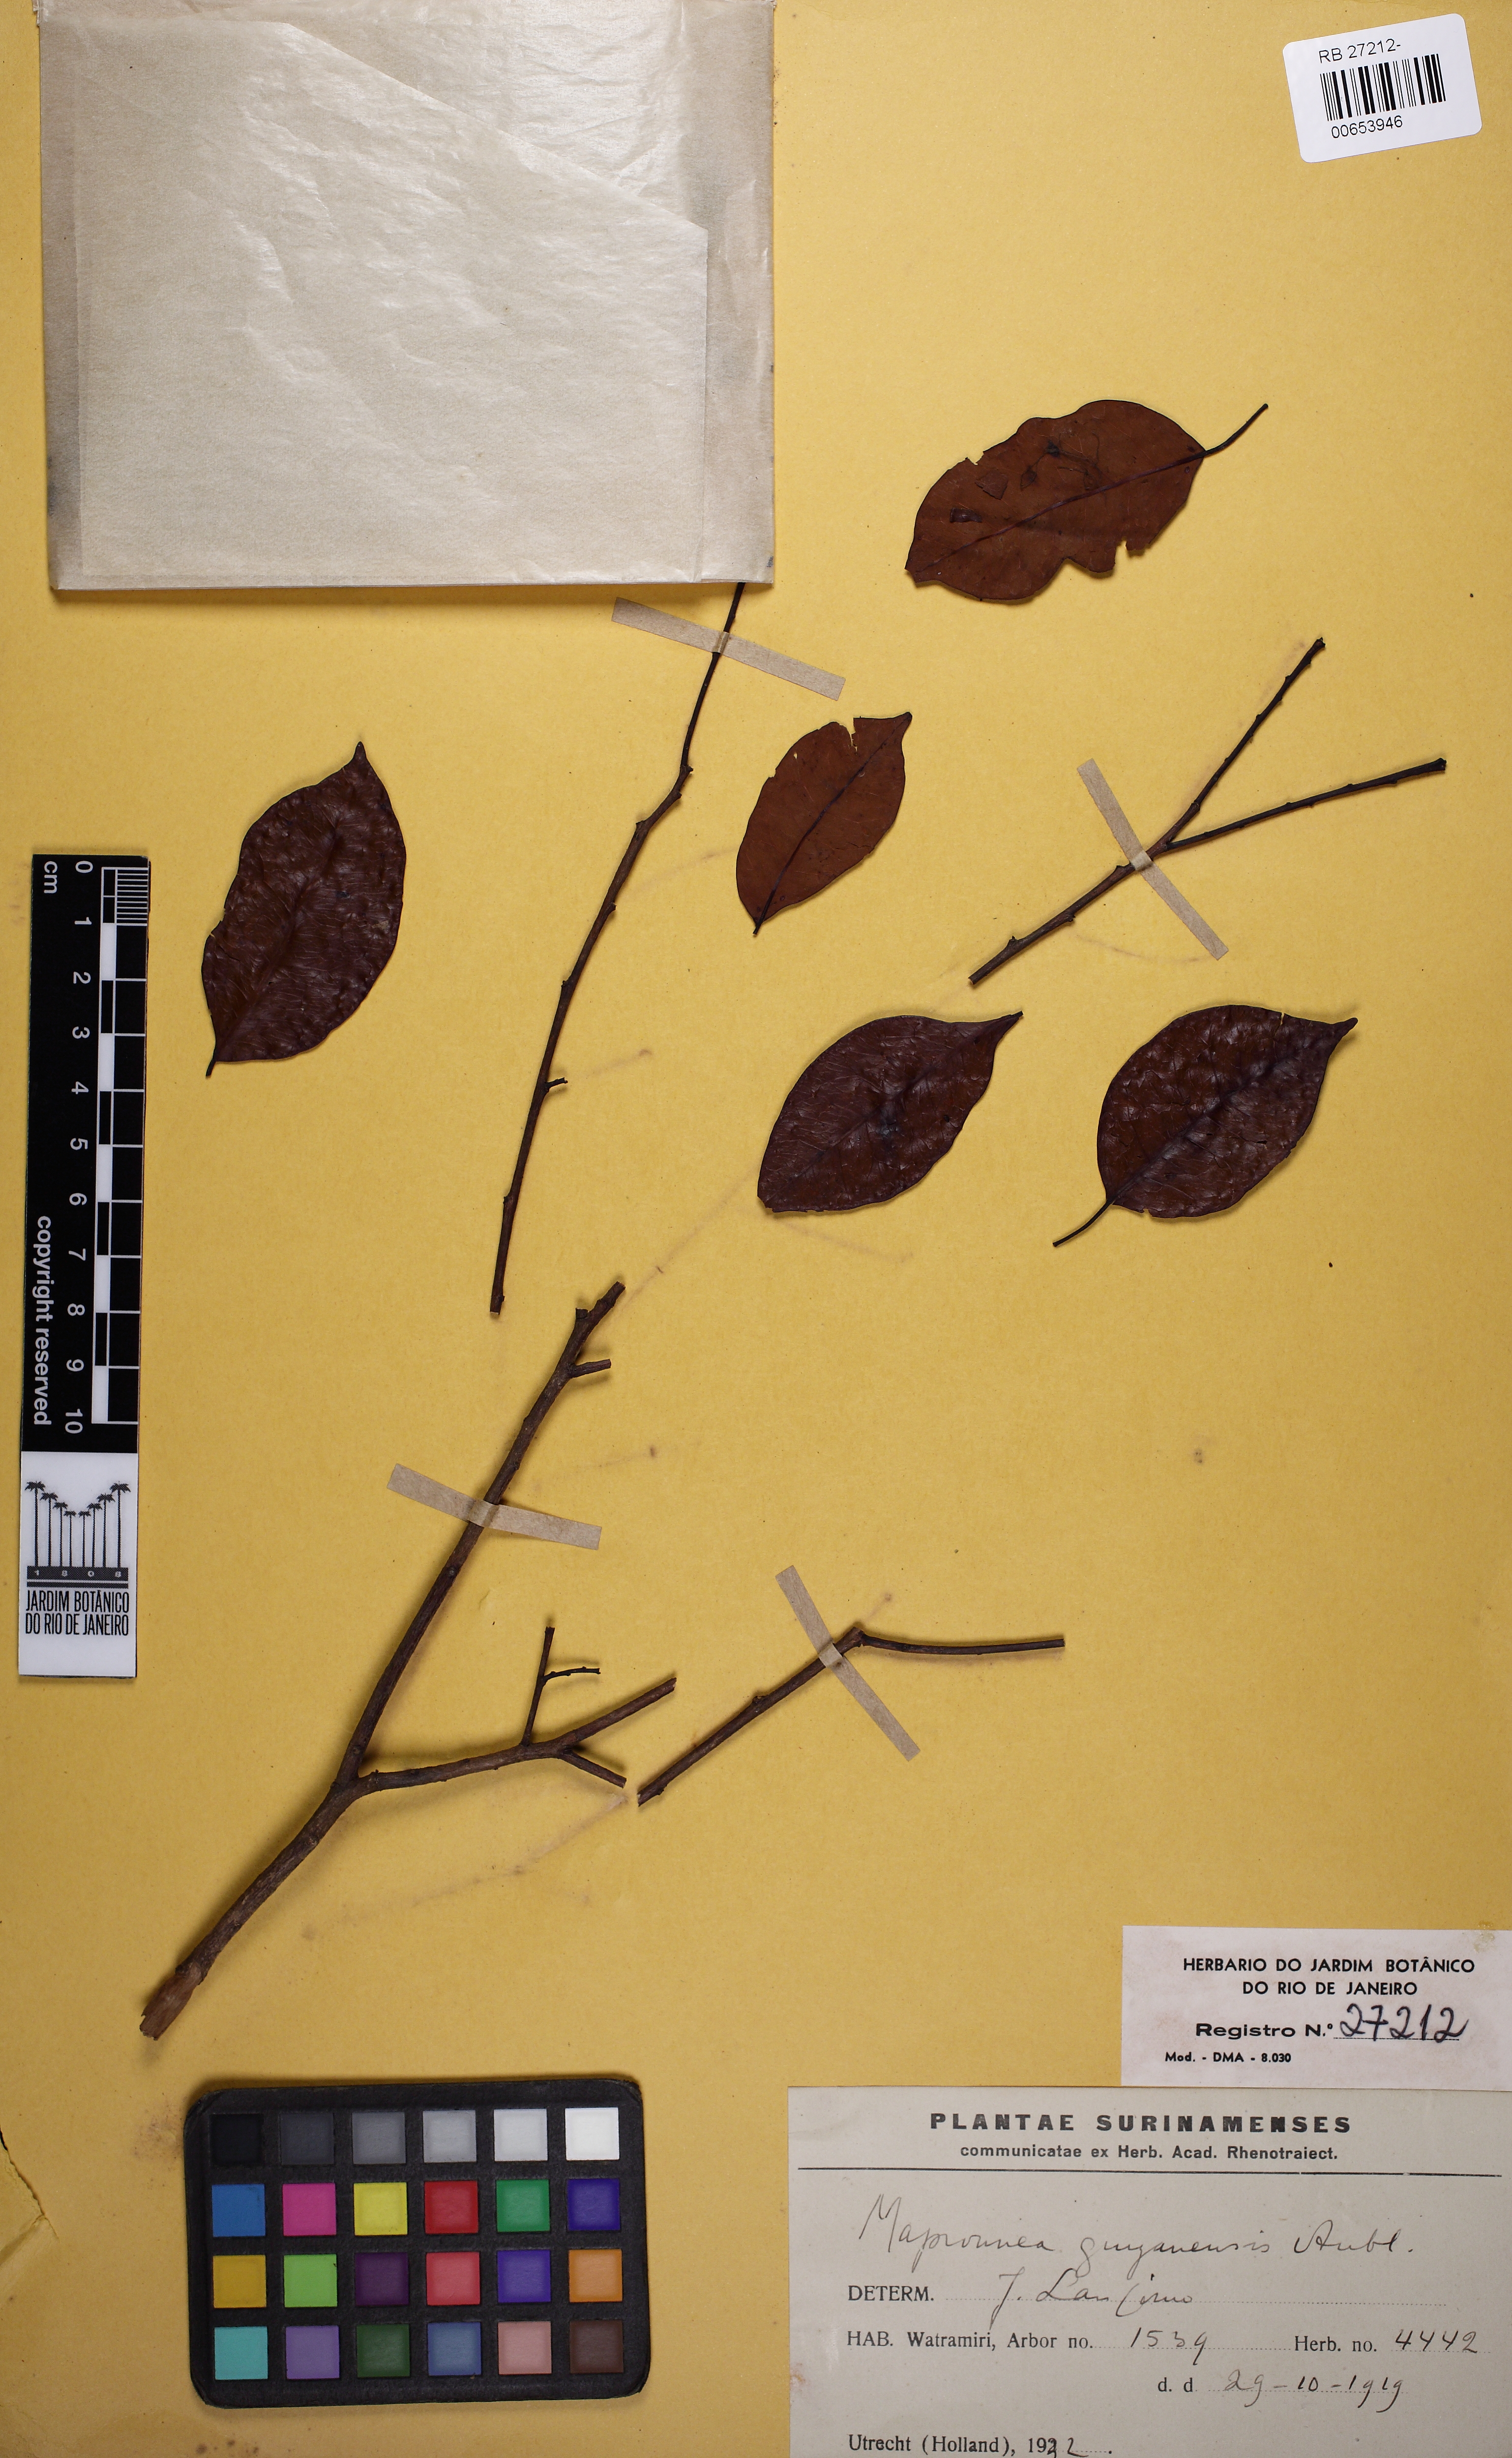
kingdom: Plantae
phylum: Tracheophyta
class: Magnoliopsida
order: Malpighiales
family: Euphorbiaceae
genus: Maprounea
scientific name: Maprounea guianensis
